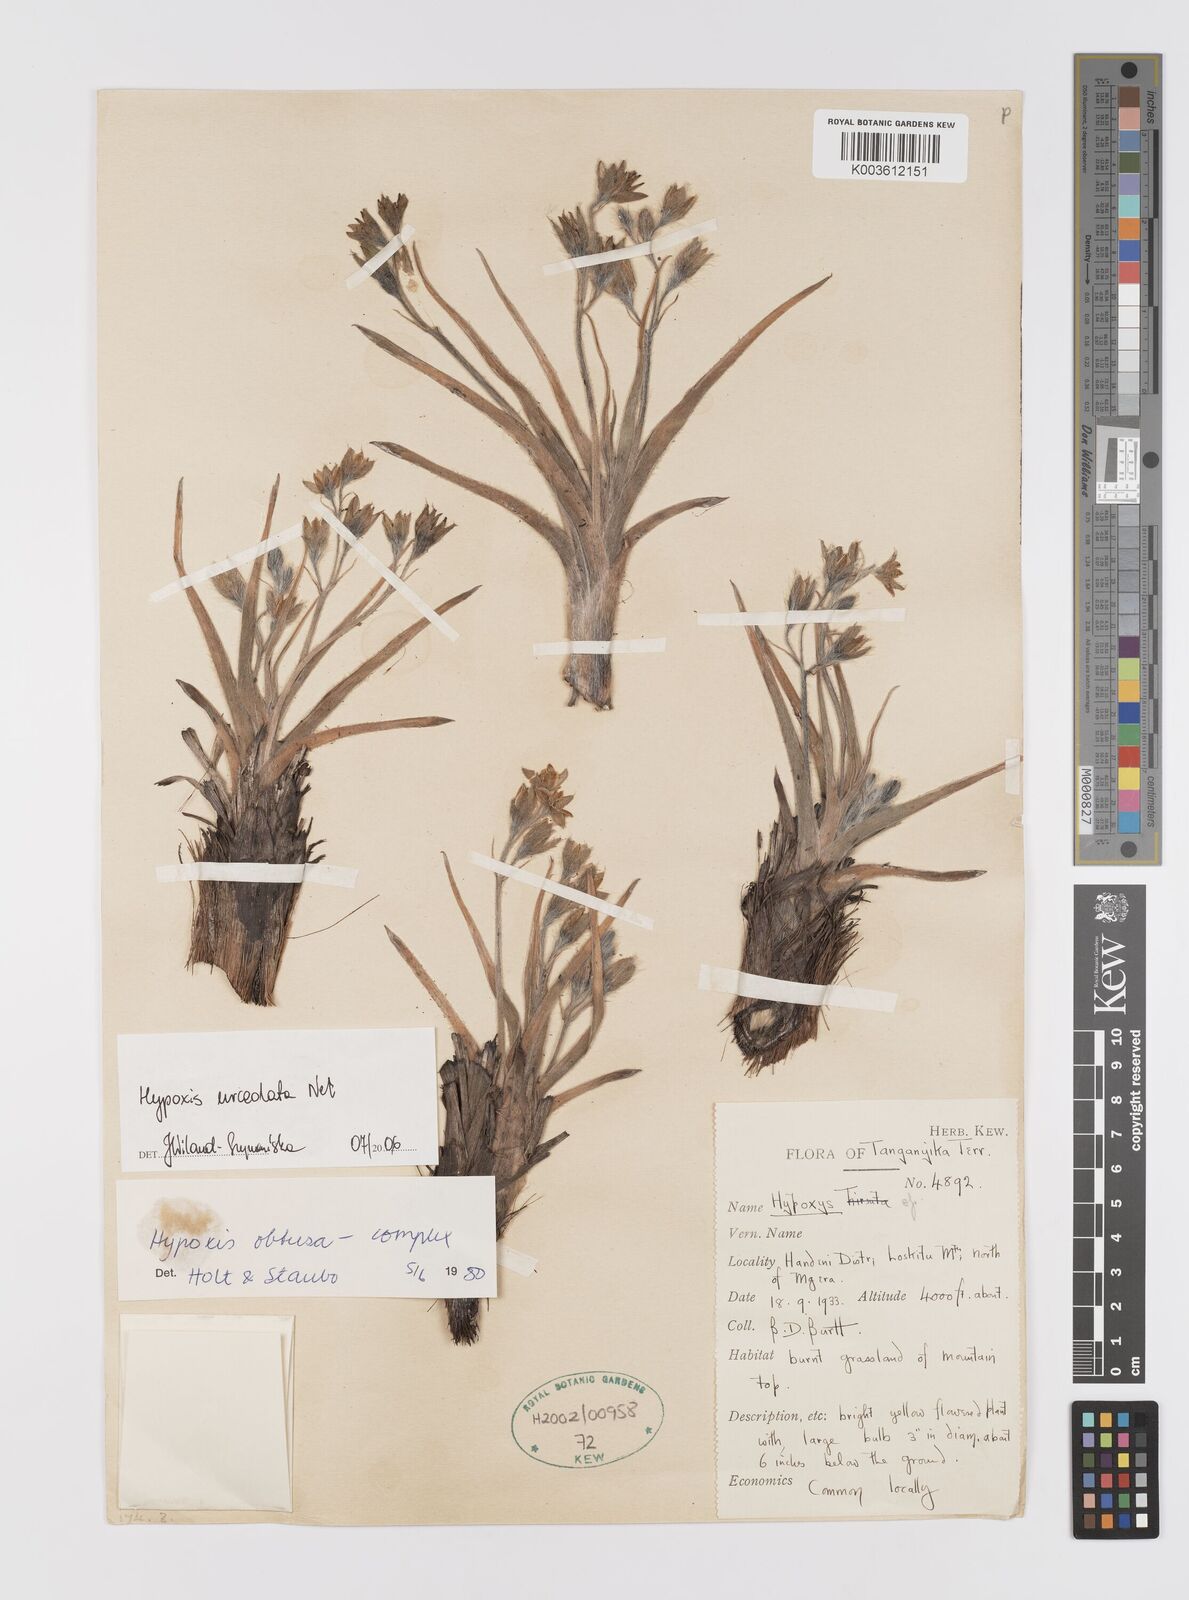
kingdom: Plantae
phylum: Tracheophyta
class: Liliopsida
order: Asparagales
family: Hypoxidaceae
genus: Hypoxis
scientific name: Hypoxis urceolata
